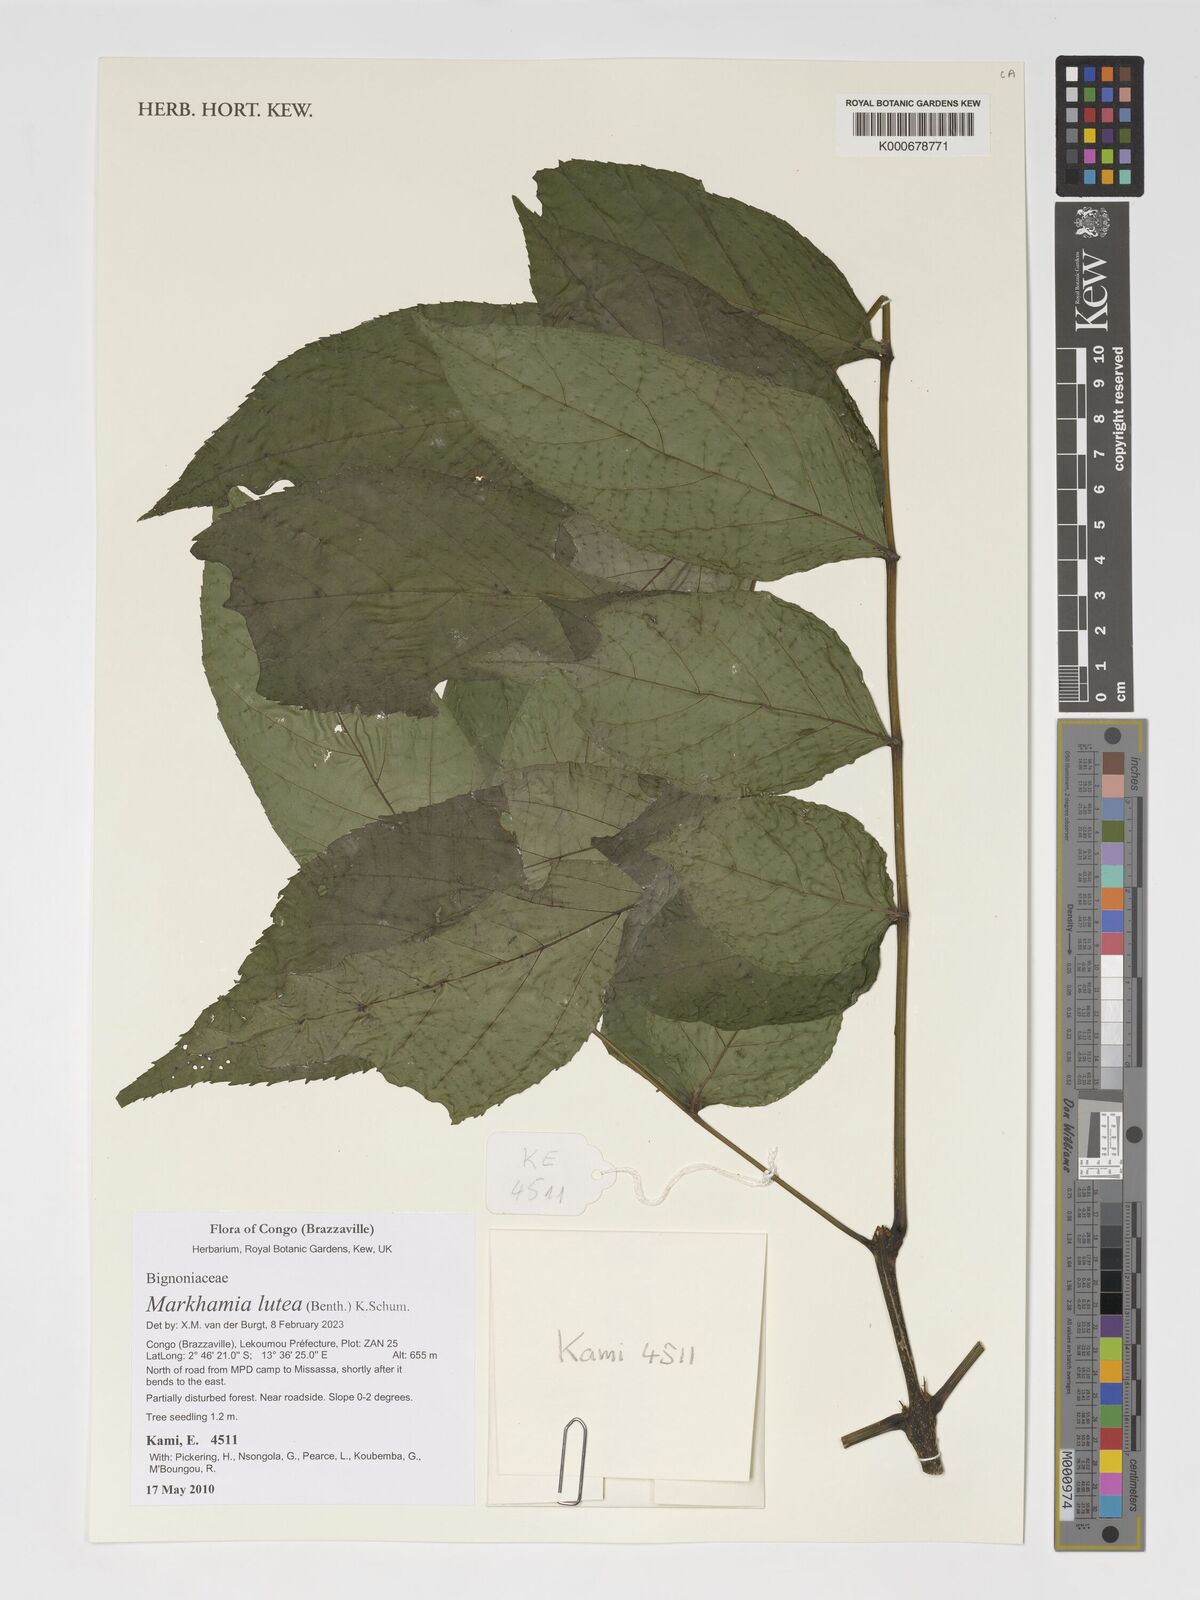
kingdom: Plantae
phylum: Tracheophyta
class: Magnoliopsida
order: Lamiales
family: Bignoniaceae
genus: Markhamia
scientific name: Markhamia lutea
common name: Siala
